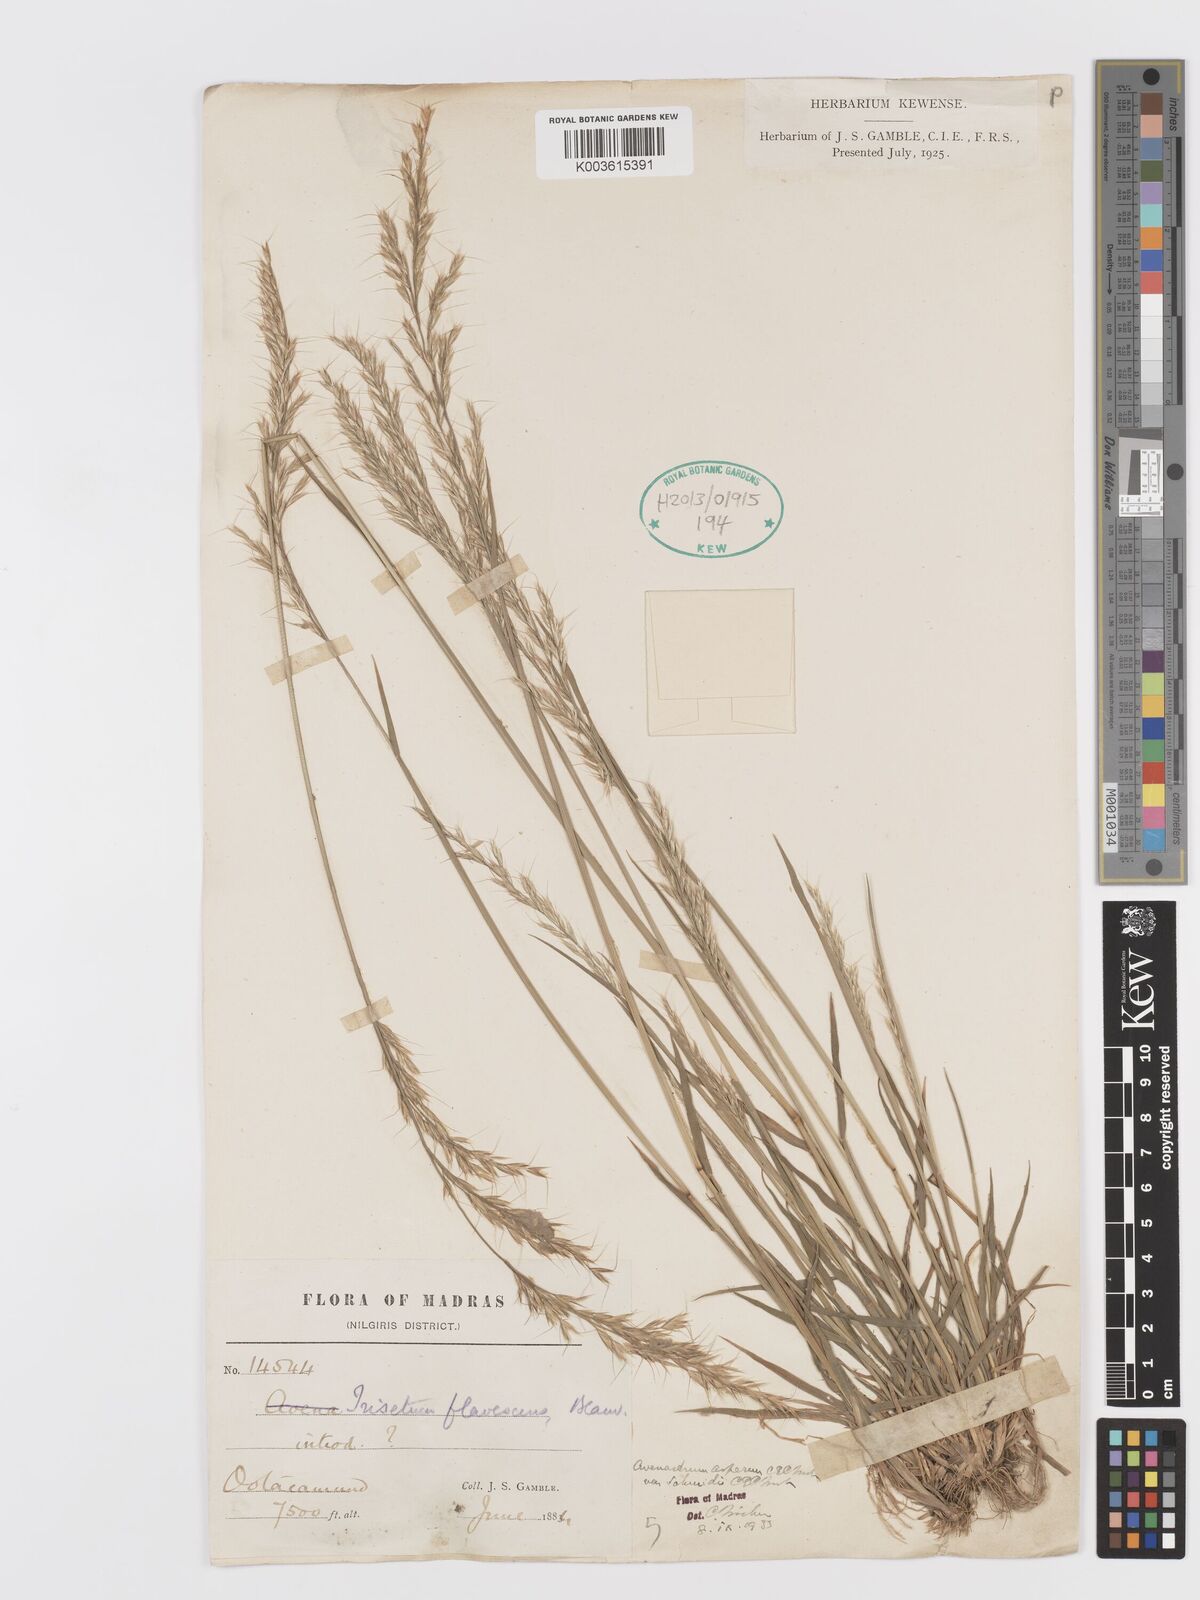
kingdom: Plantae
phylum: Tracheophyta
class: Liliopsida
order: Poales
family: Poaceae
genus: Trisetum
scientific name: Trisetum flavescens
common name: Yellow oat-grass
